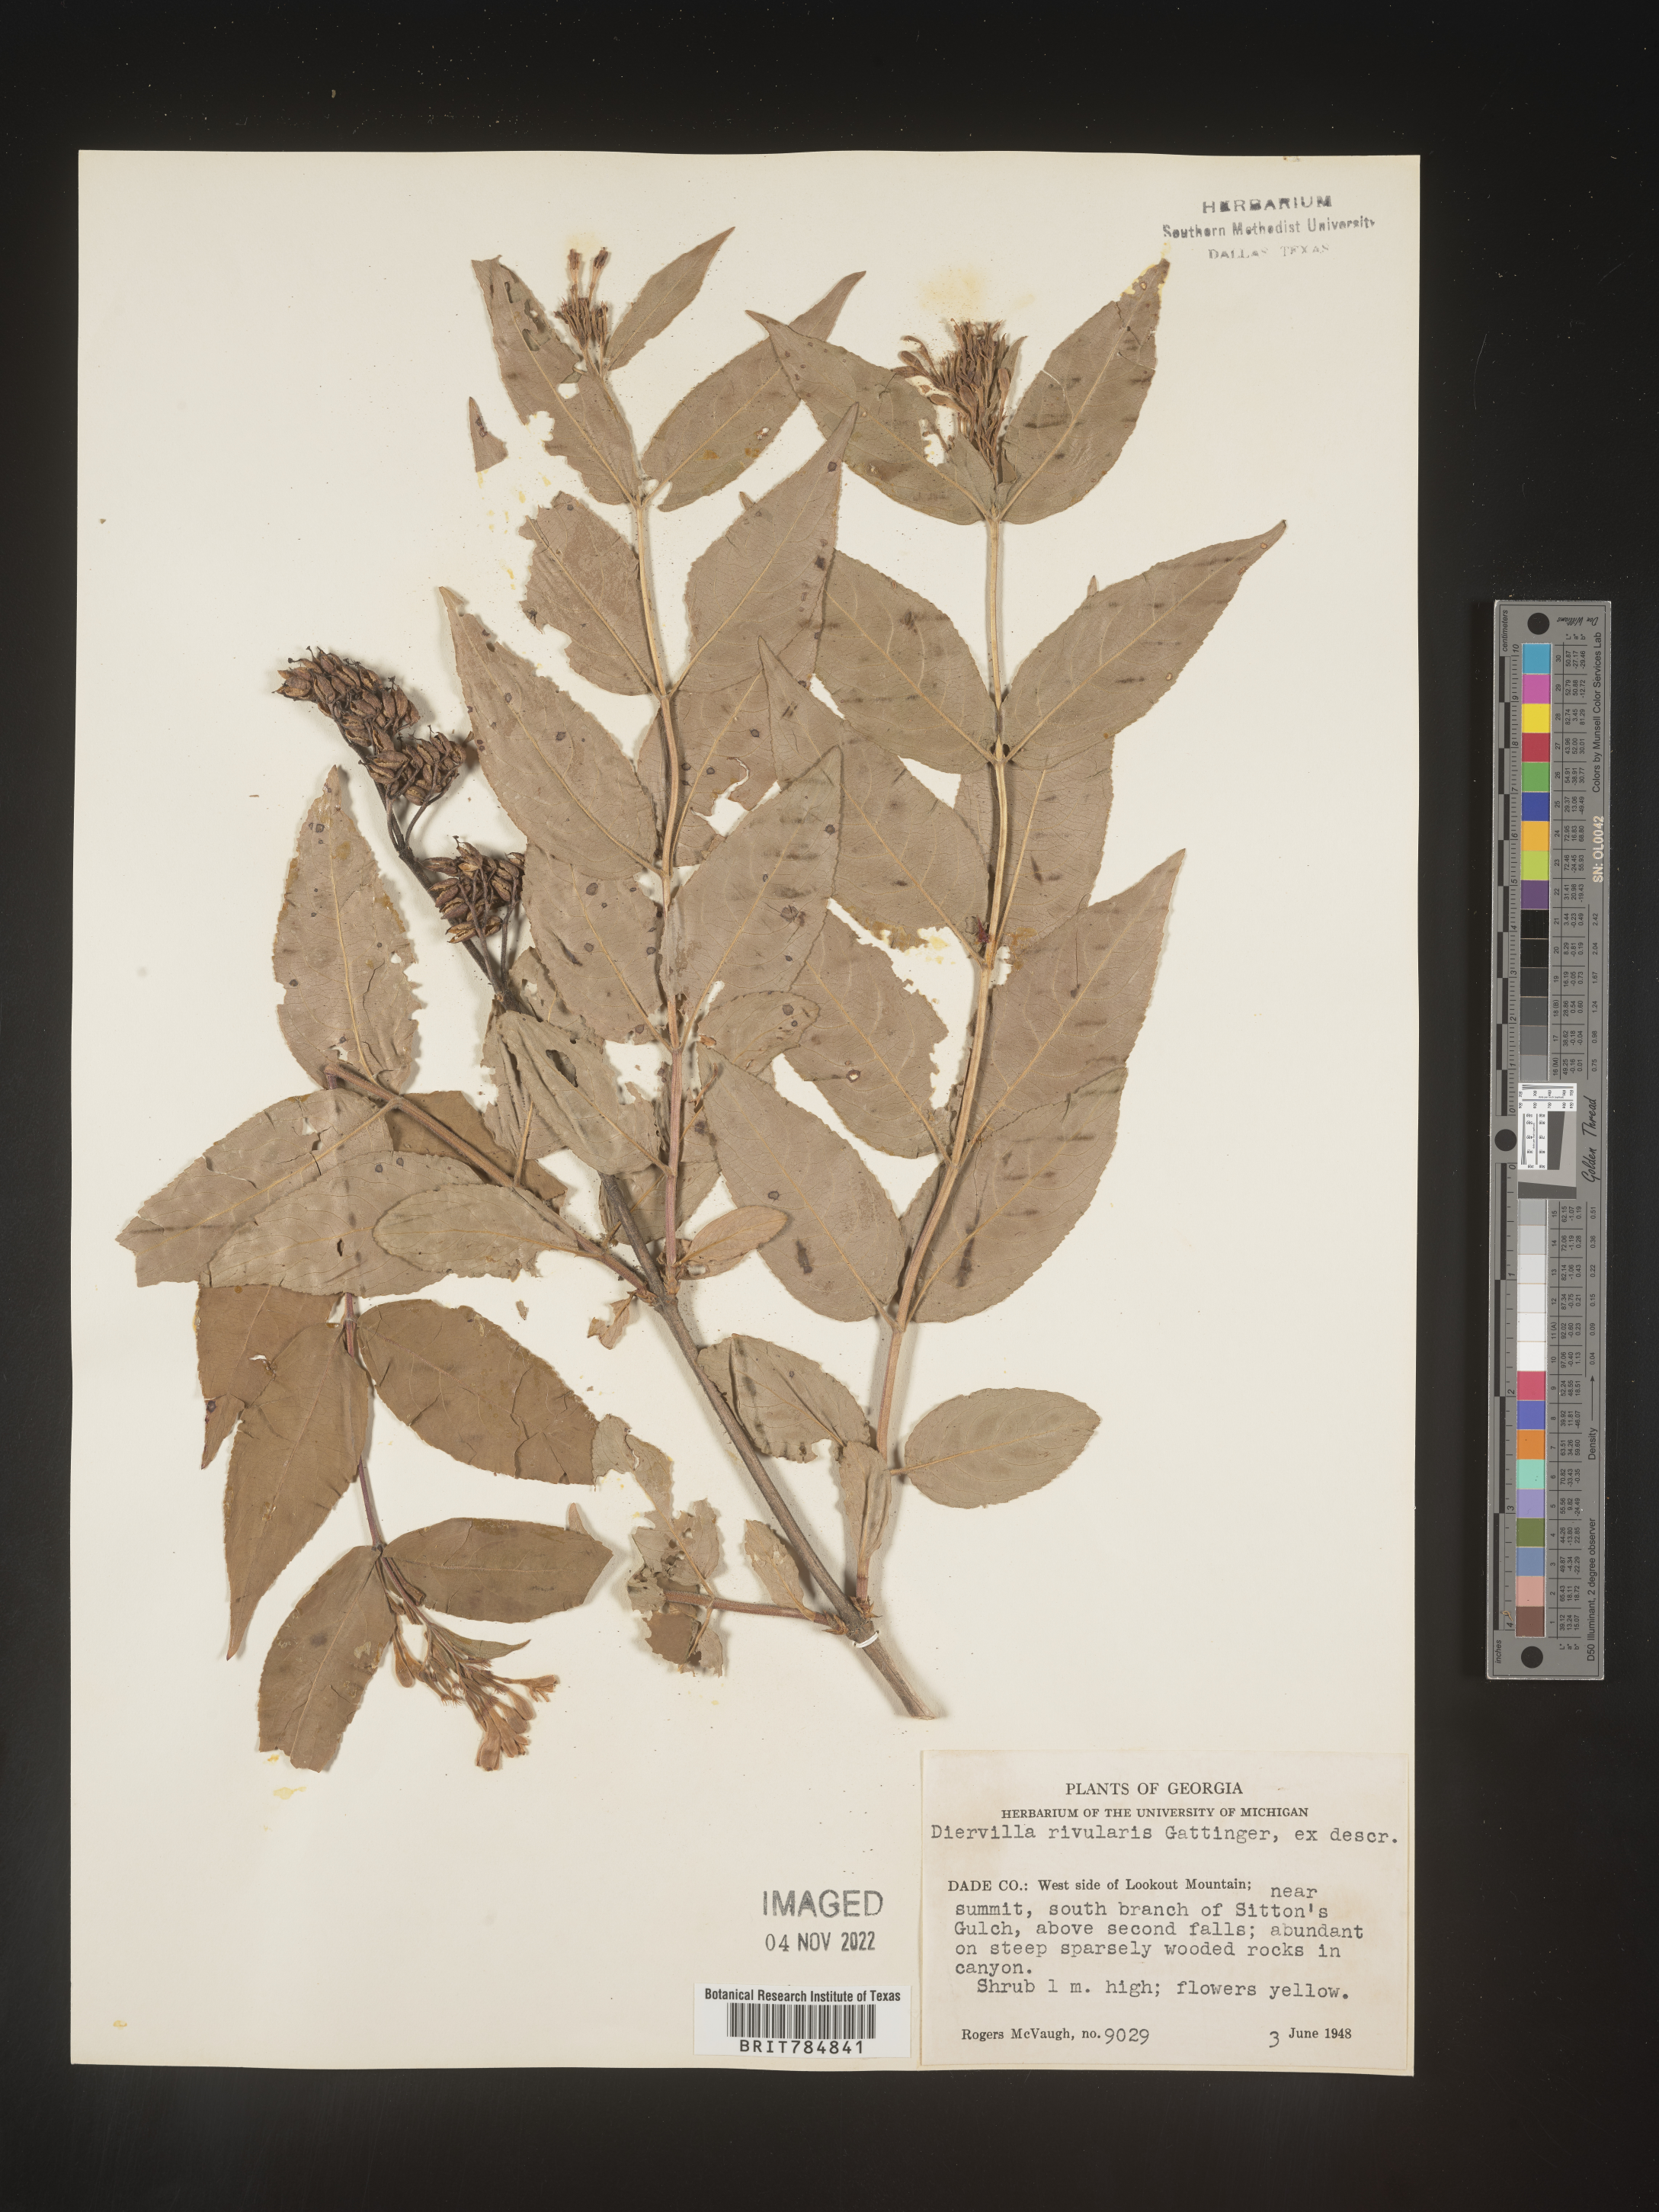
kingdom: Plantae
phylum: Tracheophyta
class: Magnoliopsida
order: Dipsacales
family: Caprifoliaceae
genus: Diervilla
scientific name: Diervilla rivularis
